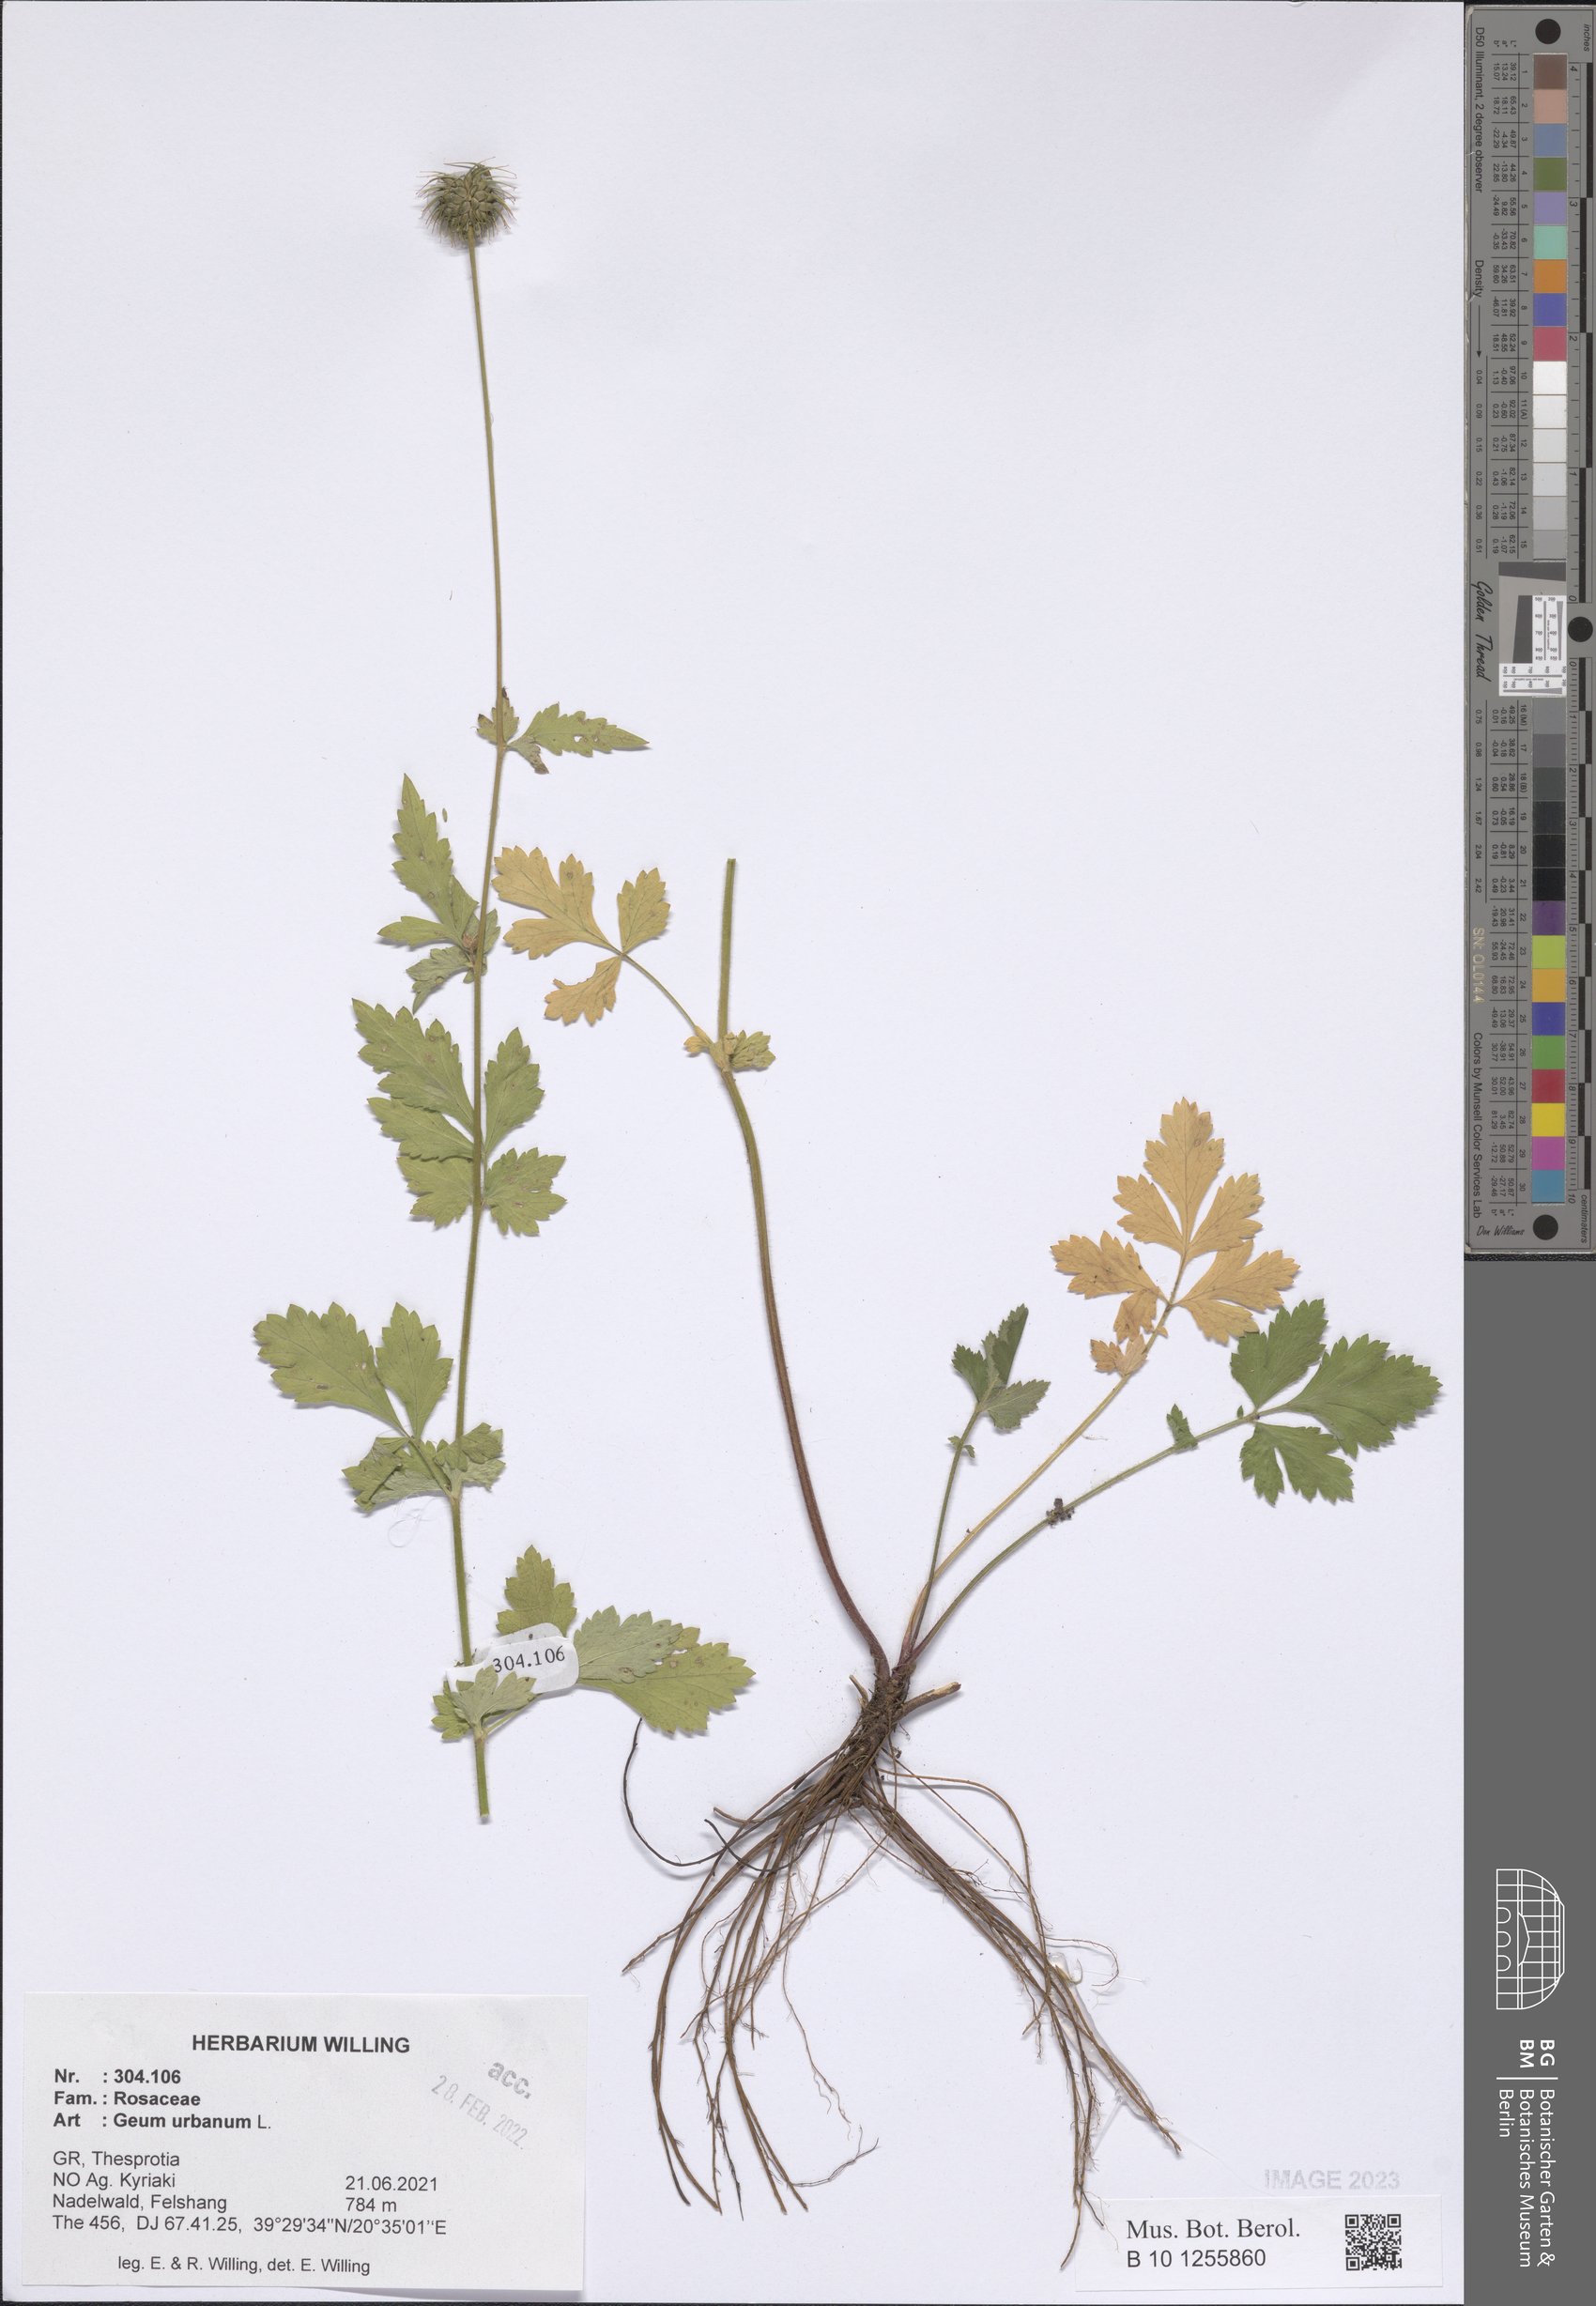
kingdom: Plantae
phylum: Tracheophyta
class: Magnoliopsida
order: Rosales
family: Rosaceae
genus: Geum
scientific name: Geum urbanum
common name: Wood avens
